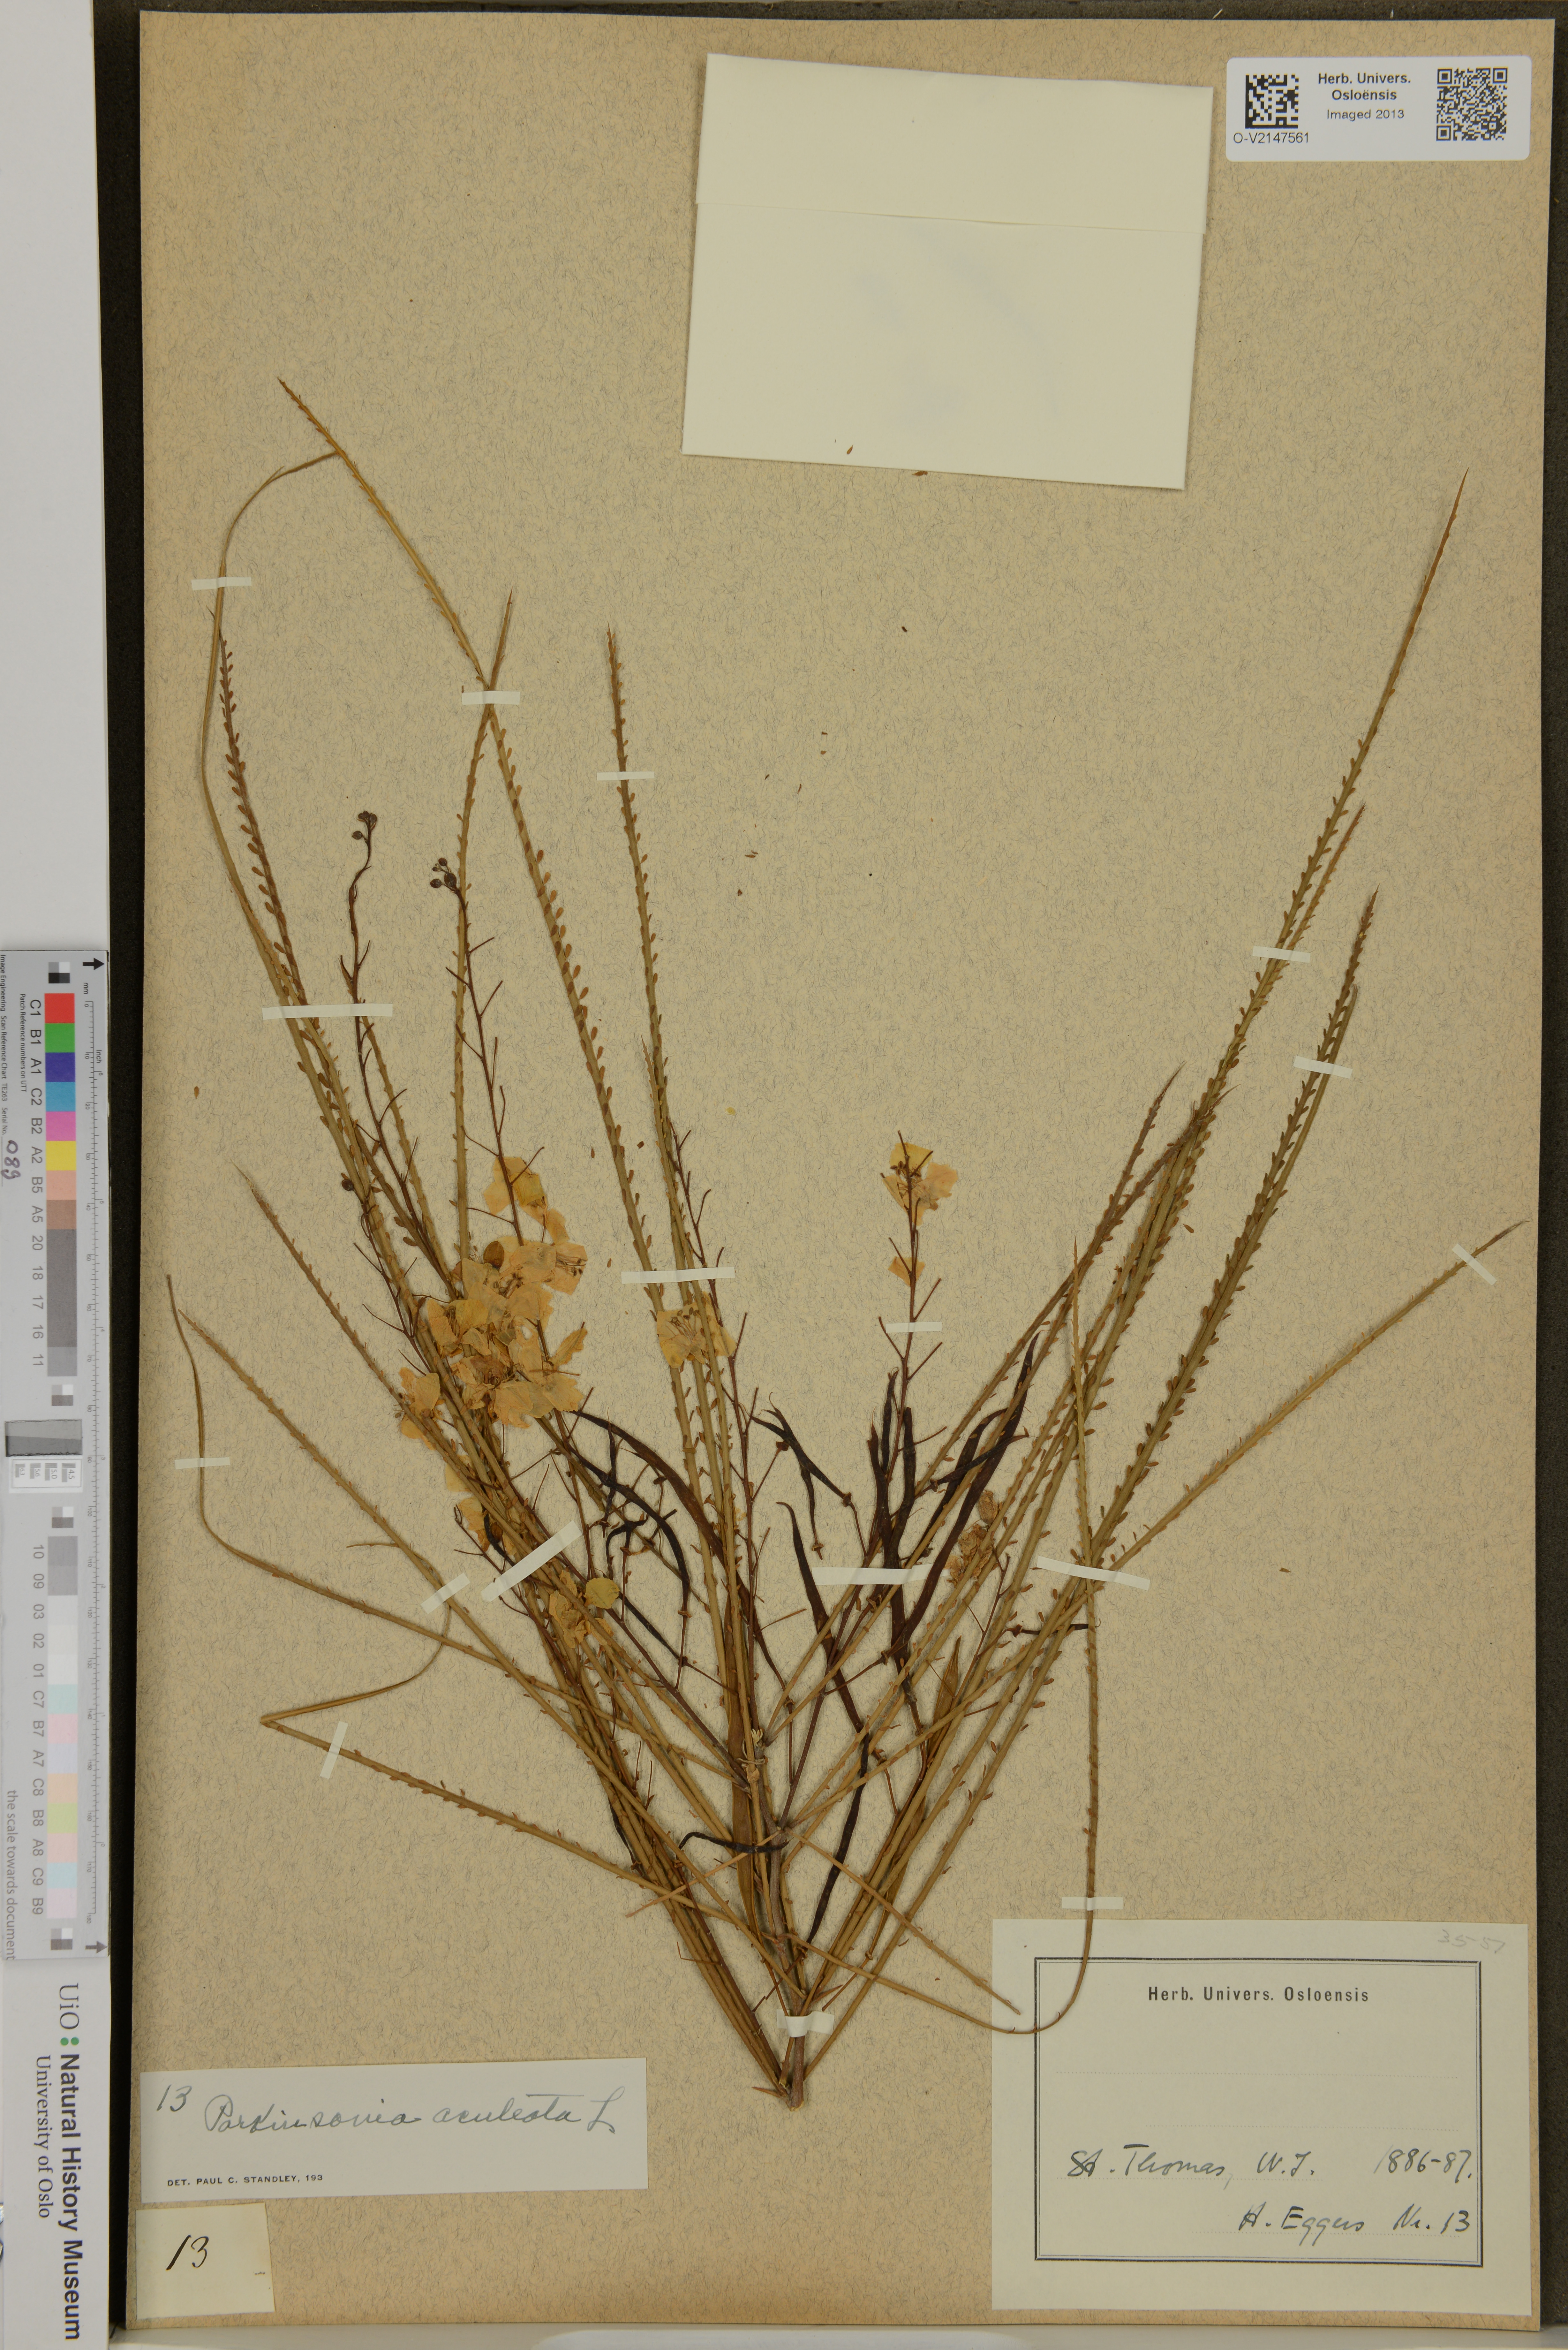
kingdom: Plantae
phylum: Tracheophyta
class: Magnoliopsida
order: Fabales
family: Fabaceae
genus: Parkinsonia
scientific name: Parkinsonia aculeata
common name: Jerusalem thorn
